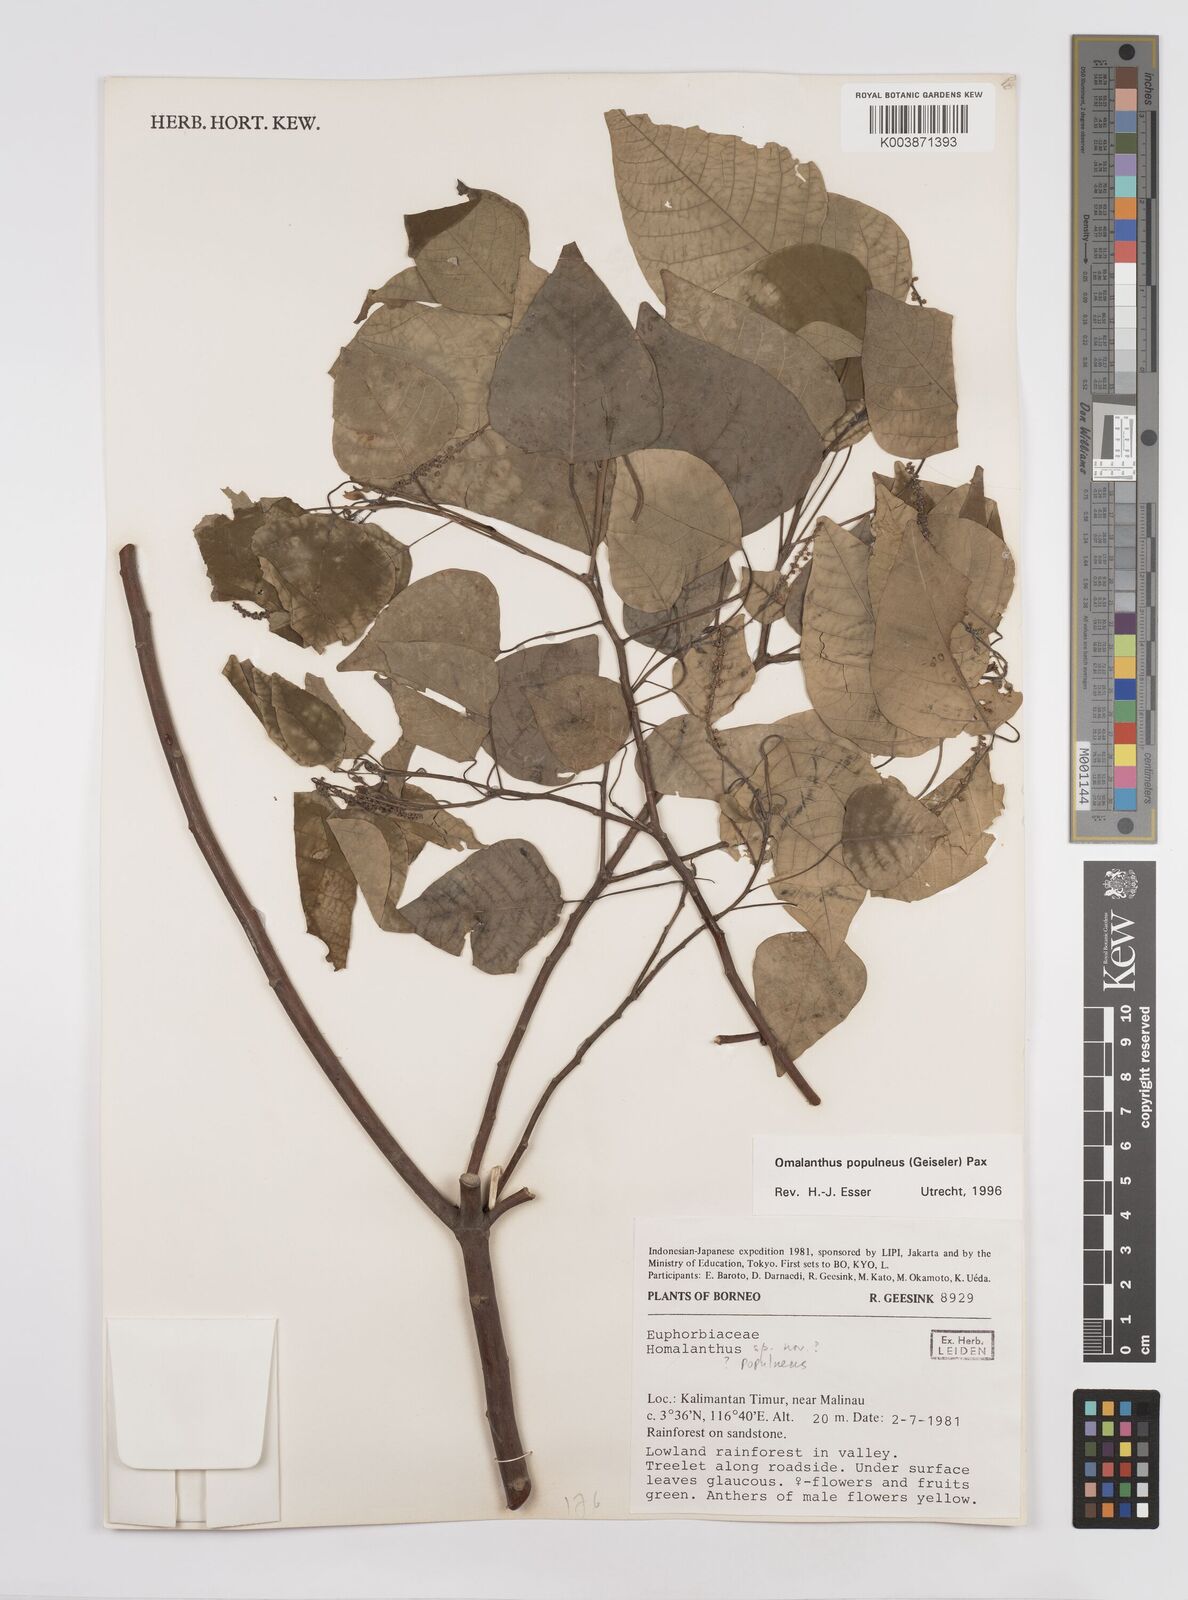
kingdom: Plantae
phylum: Tracheophyta
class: Magnoliopsida
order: Malpighiales
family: Euphorbiaceae
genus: Homalanthus
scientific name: Homalanthus populneus
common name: Spurge
